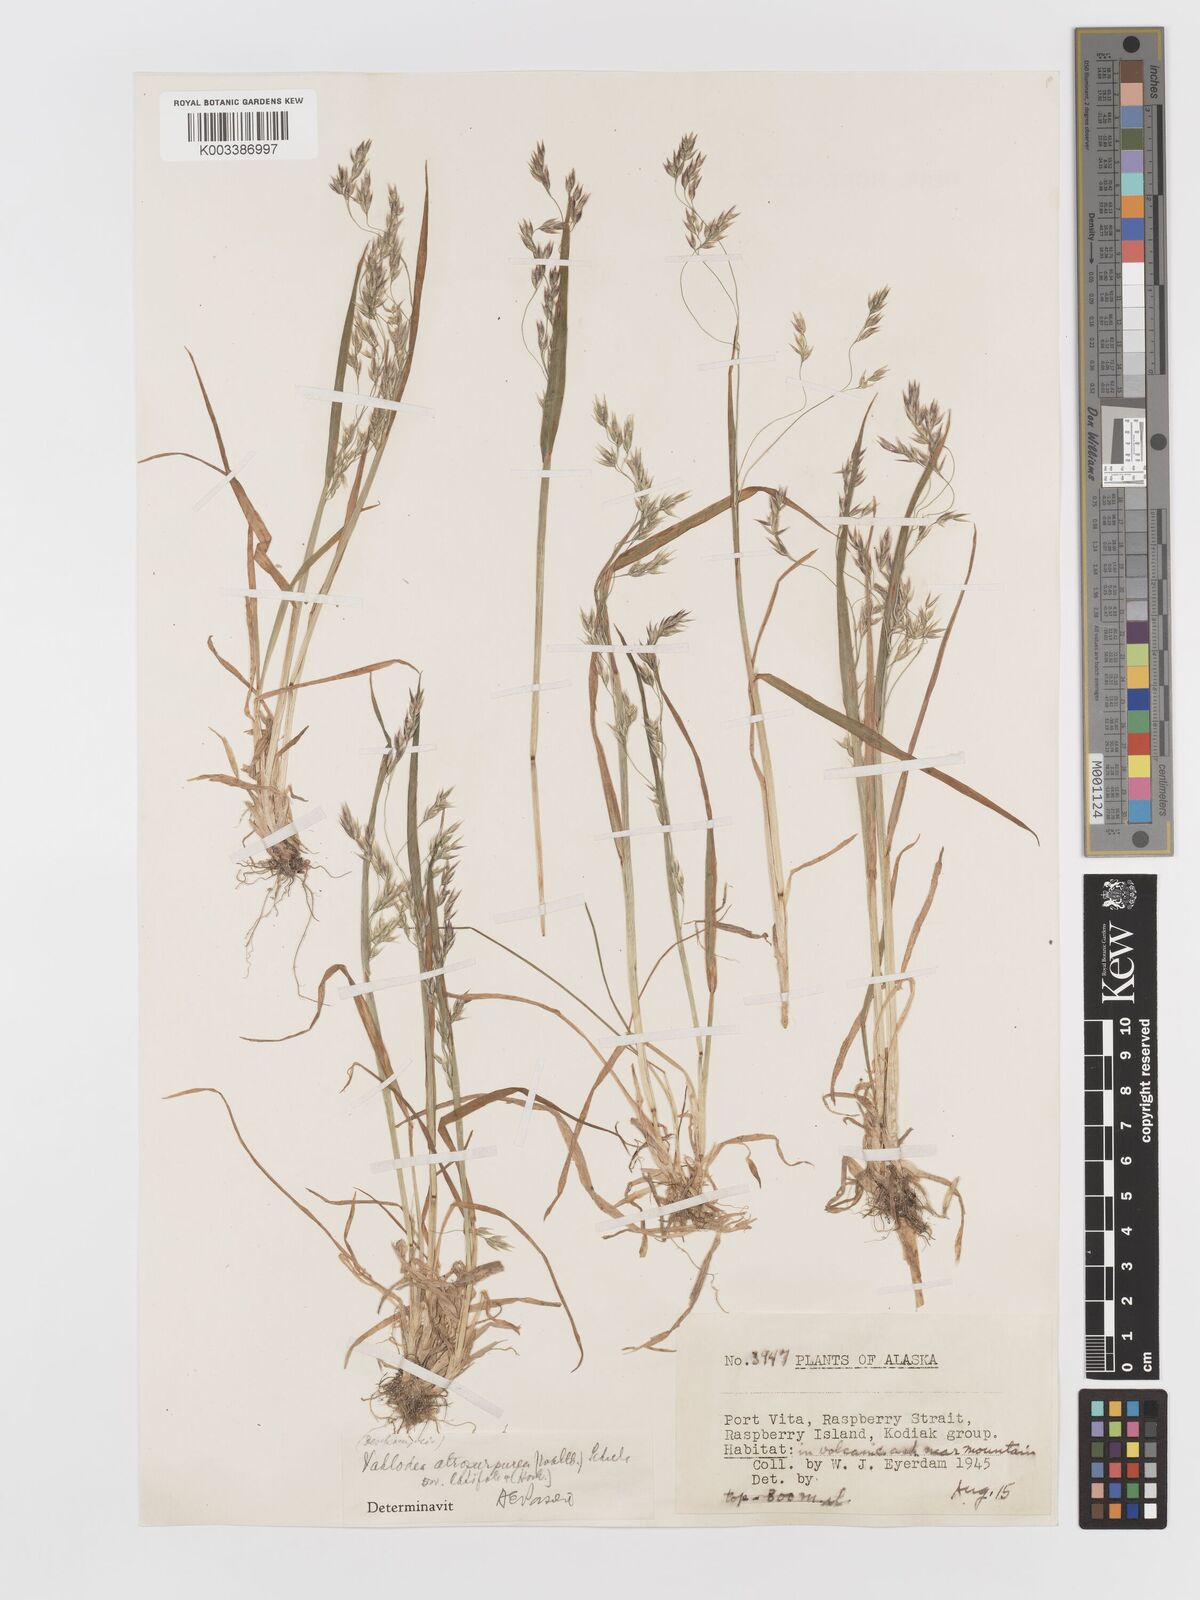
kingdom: Plantae
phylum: Tracheophyta
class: Liliopsida
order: Poales
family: Poaceae
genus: Vahlodea
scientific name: Vahlodea atropurpurea
